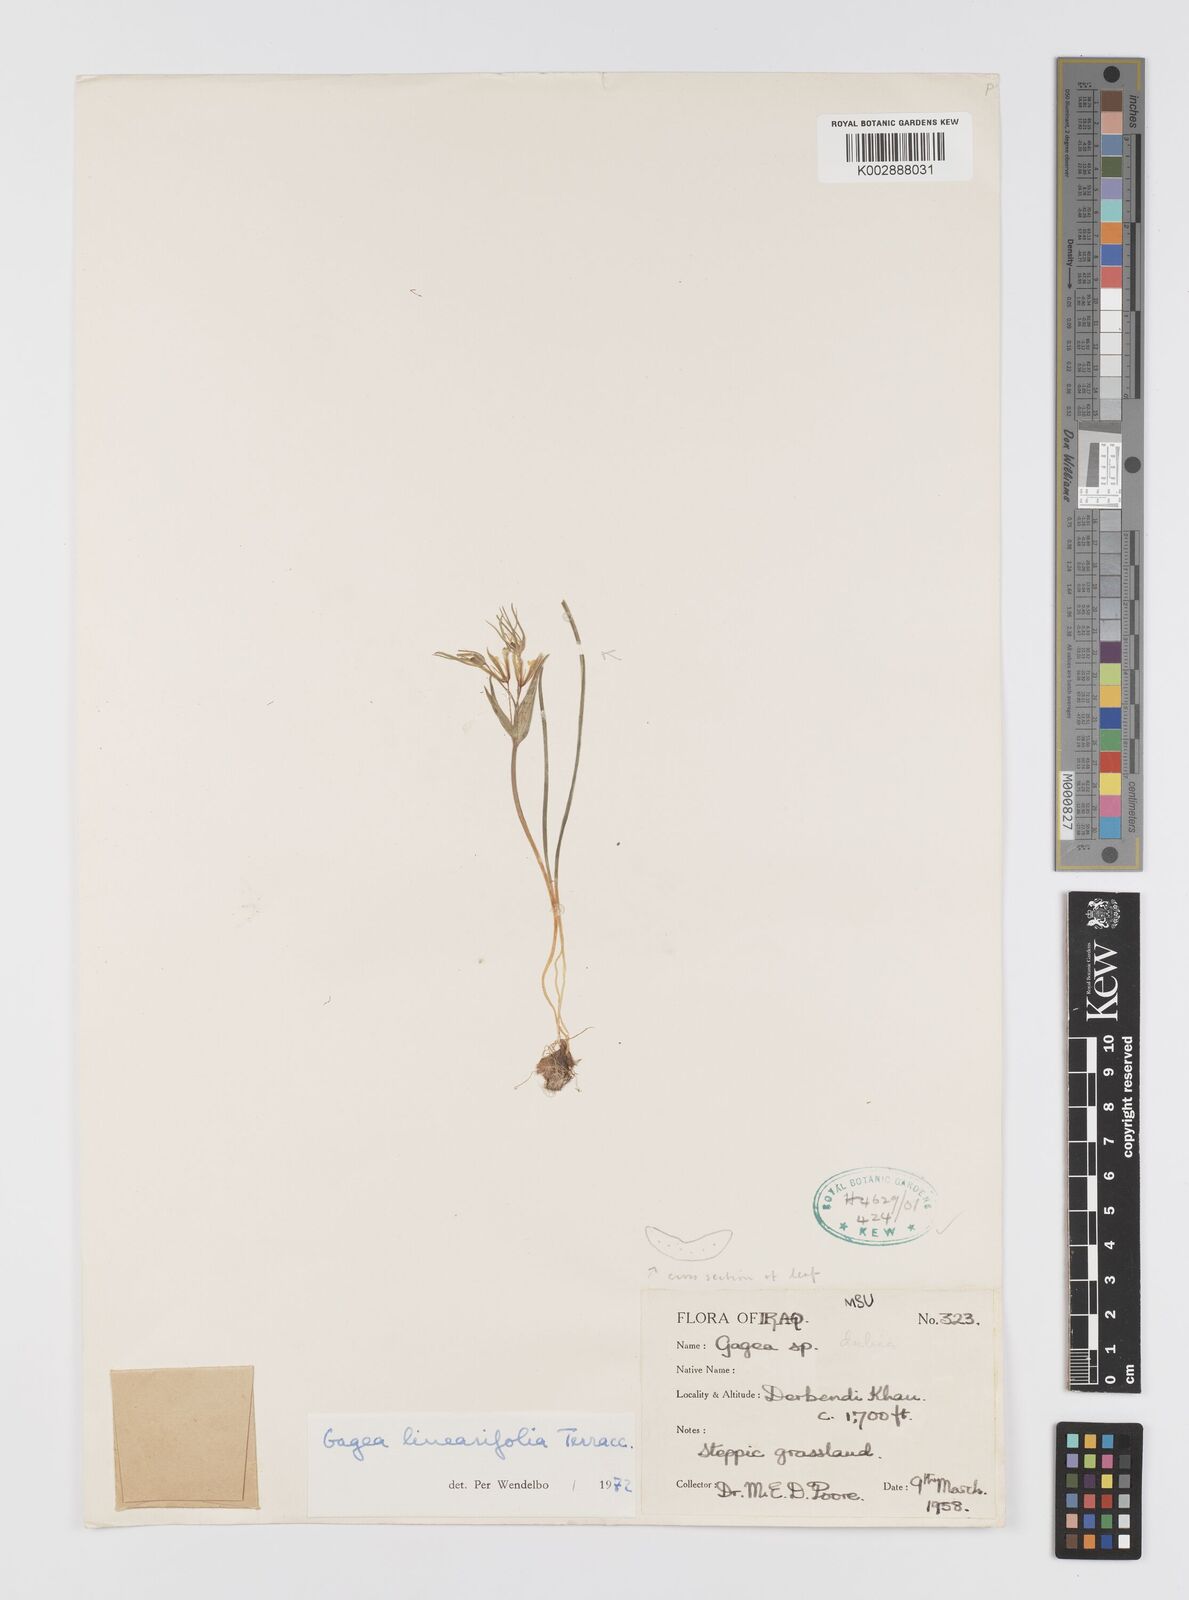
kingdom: Plantae
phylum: Tracheophyta
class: Liliopsida
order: Liliales
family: Liliaceae
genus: Gagea
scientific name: Gagea luteoides
